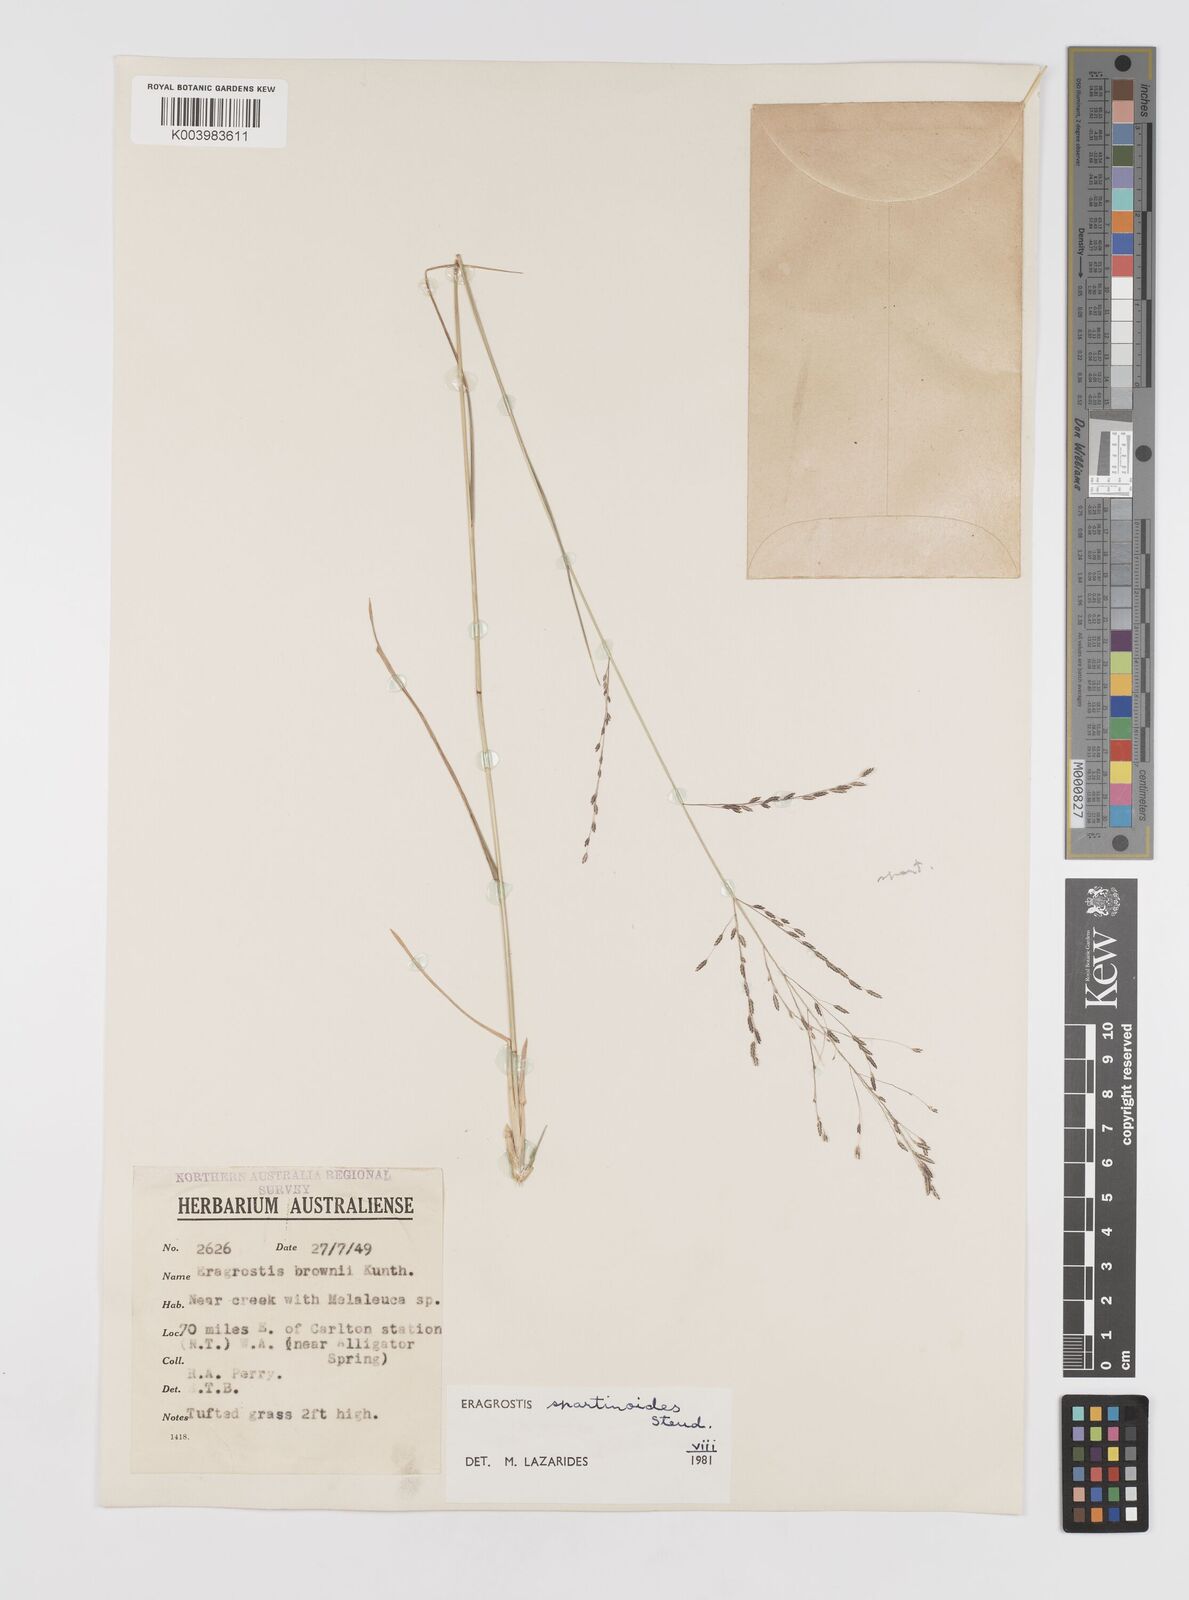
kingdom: Plantae
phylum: Tracheophyta
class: Liliopsida
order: Poales
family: Poaceae
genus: Eragrostis
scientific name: Eragrostis brownii
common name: Lovegrass
